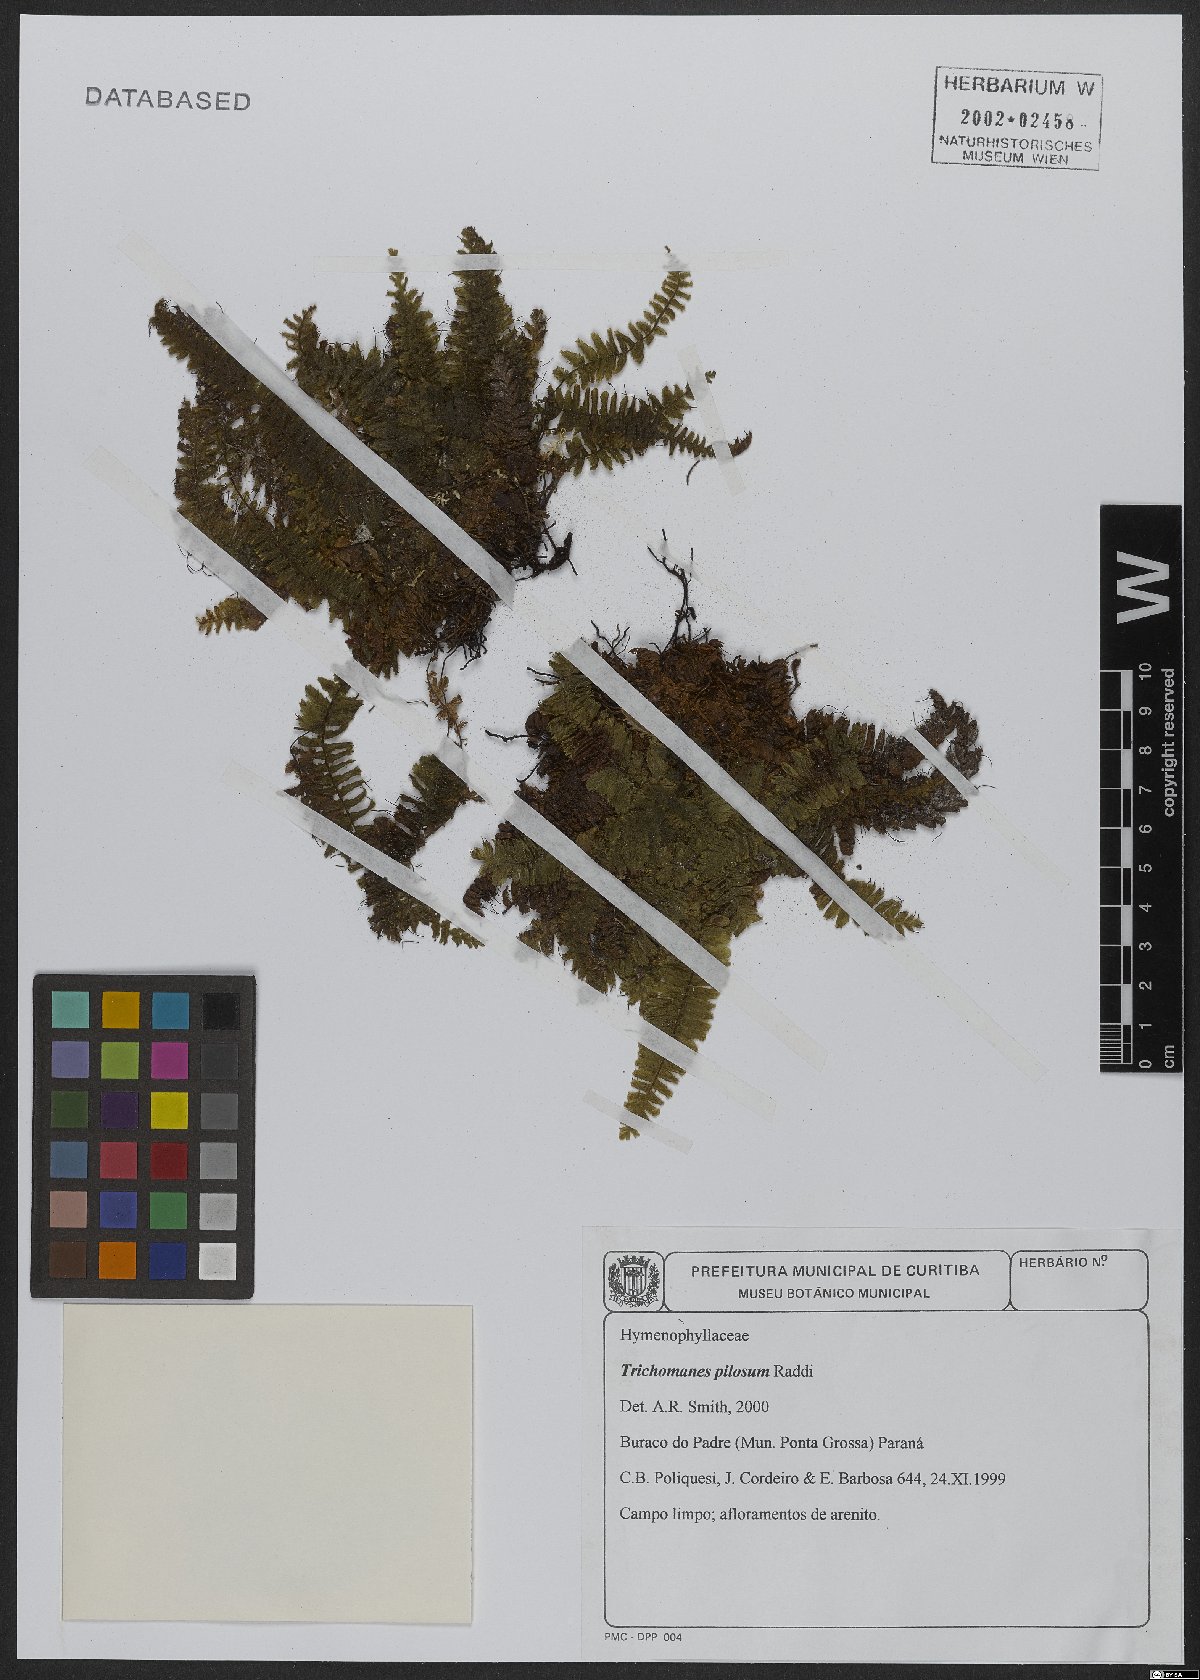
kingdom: Plantae
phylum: Tracheophyta
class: Polypodiopsida
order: Hymenophyllales
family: Hymenophyllaceae
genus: Trichomanes
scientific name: Trichomanes pilosum
